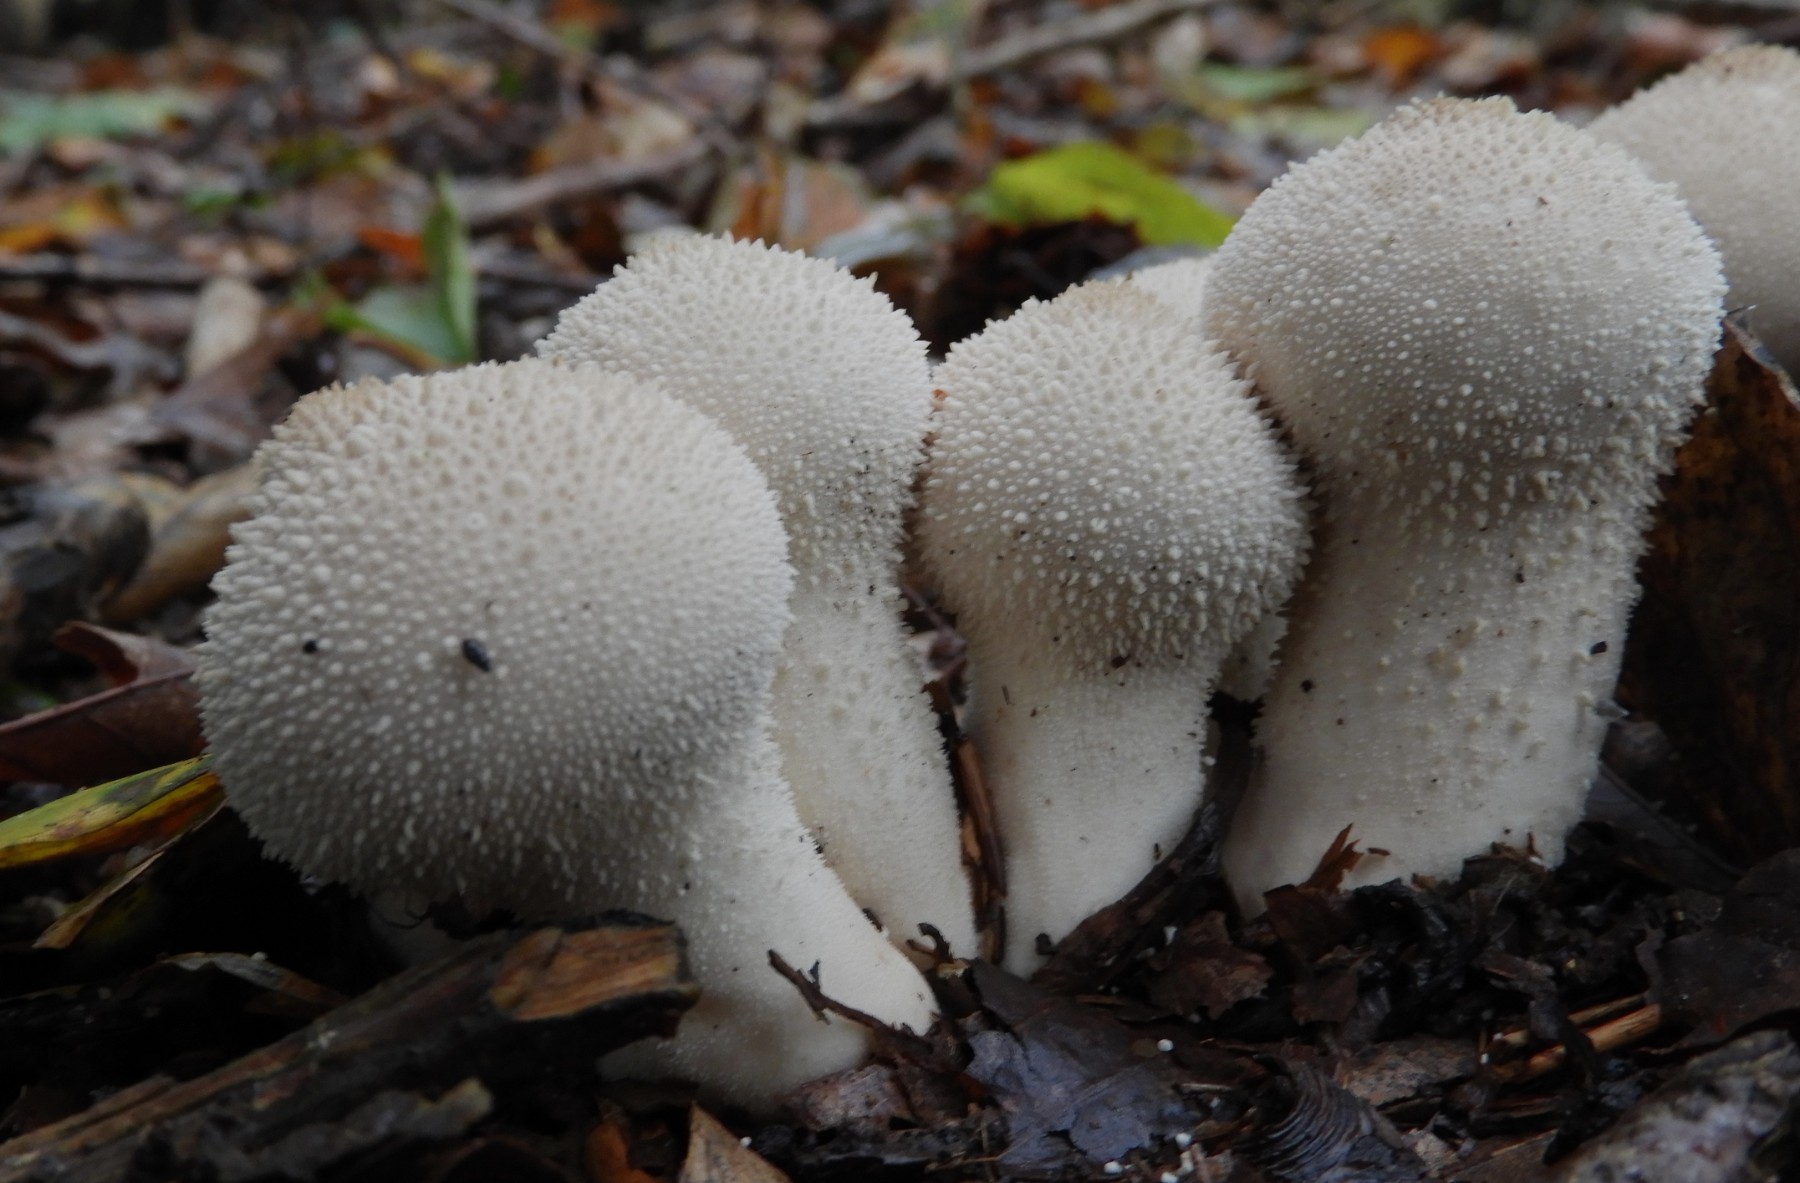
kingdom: Fungi
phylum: Basidiomycota
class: Agaricomycetes
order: Agaricales
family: Lycoperdaceae
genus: Lycoperdon
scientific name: Lycoperdon perlatum
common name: krystal-støvbold
